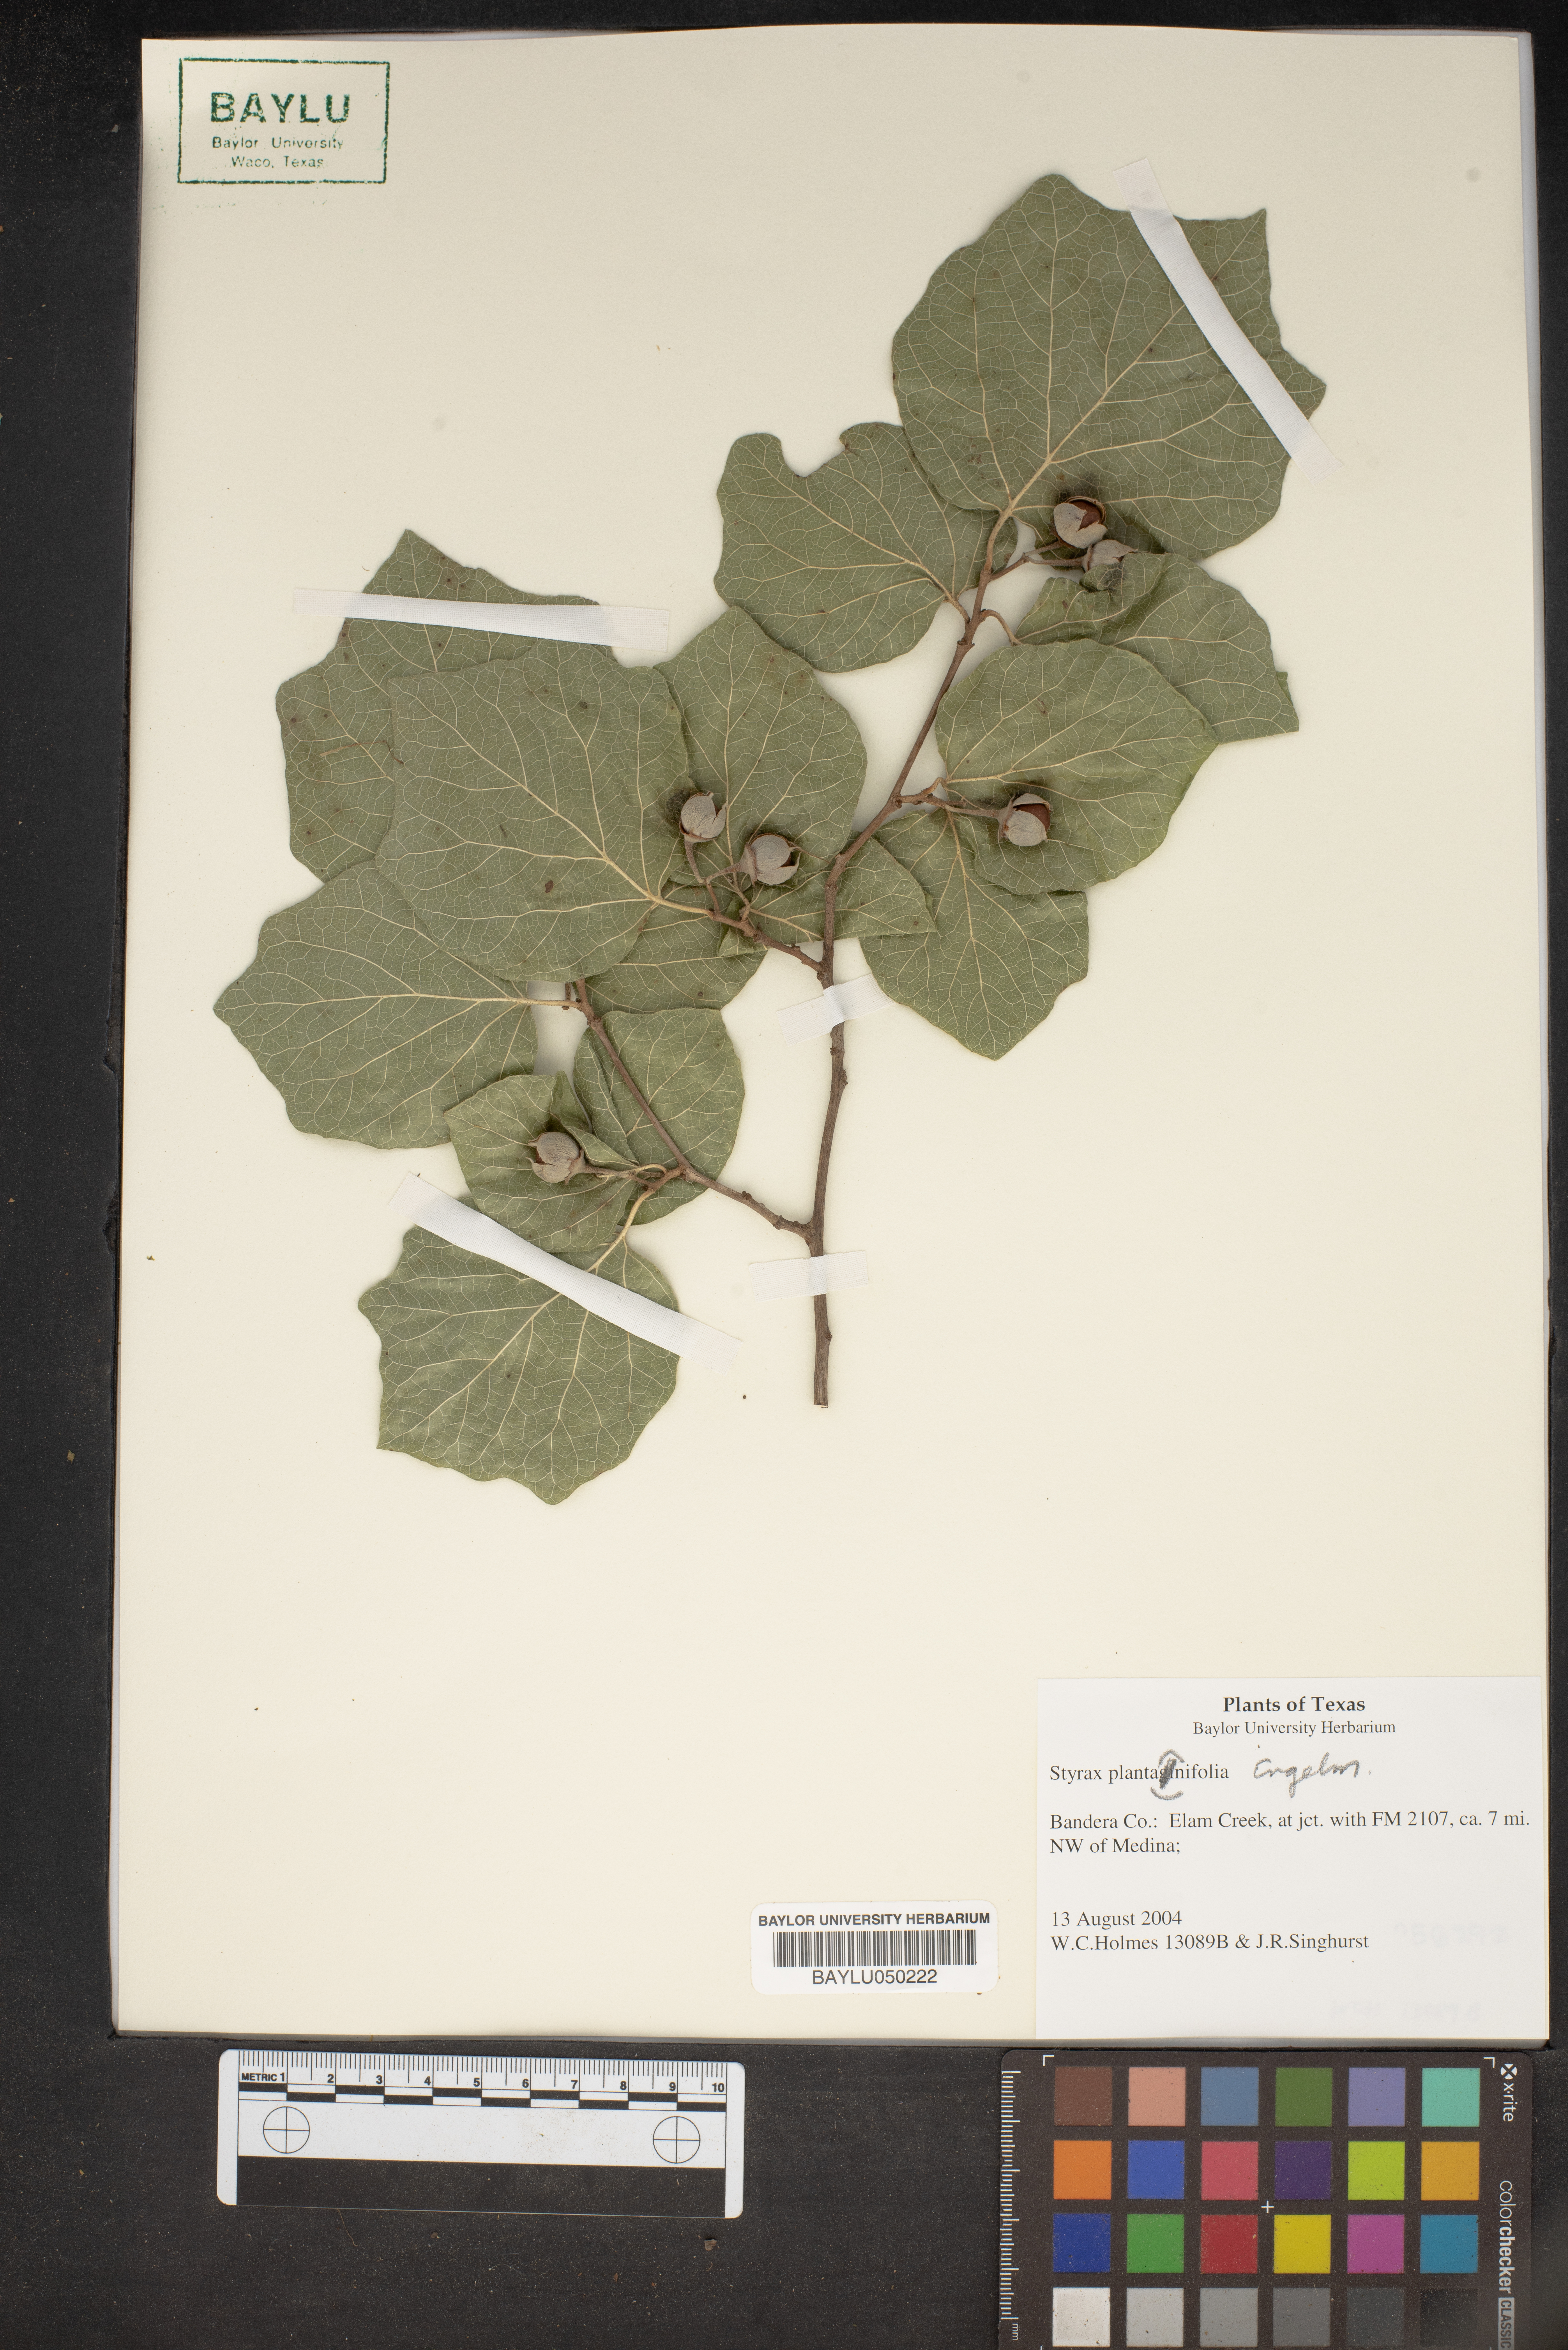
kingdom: Plantae
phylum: Tracheophyta
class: Magnoliopsida
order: Ericales
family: Styracaceae
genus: Styrax
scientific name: Styrax platanifolius
